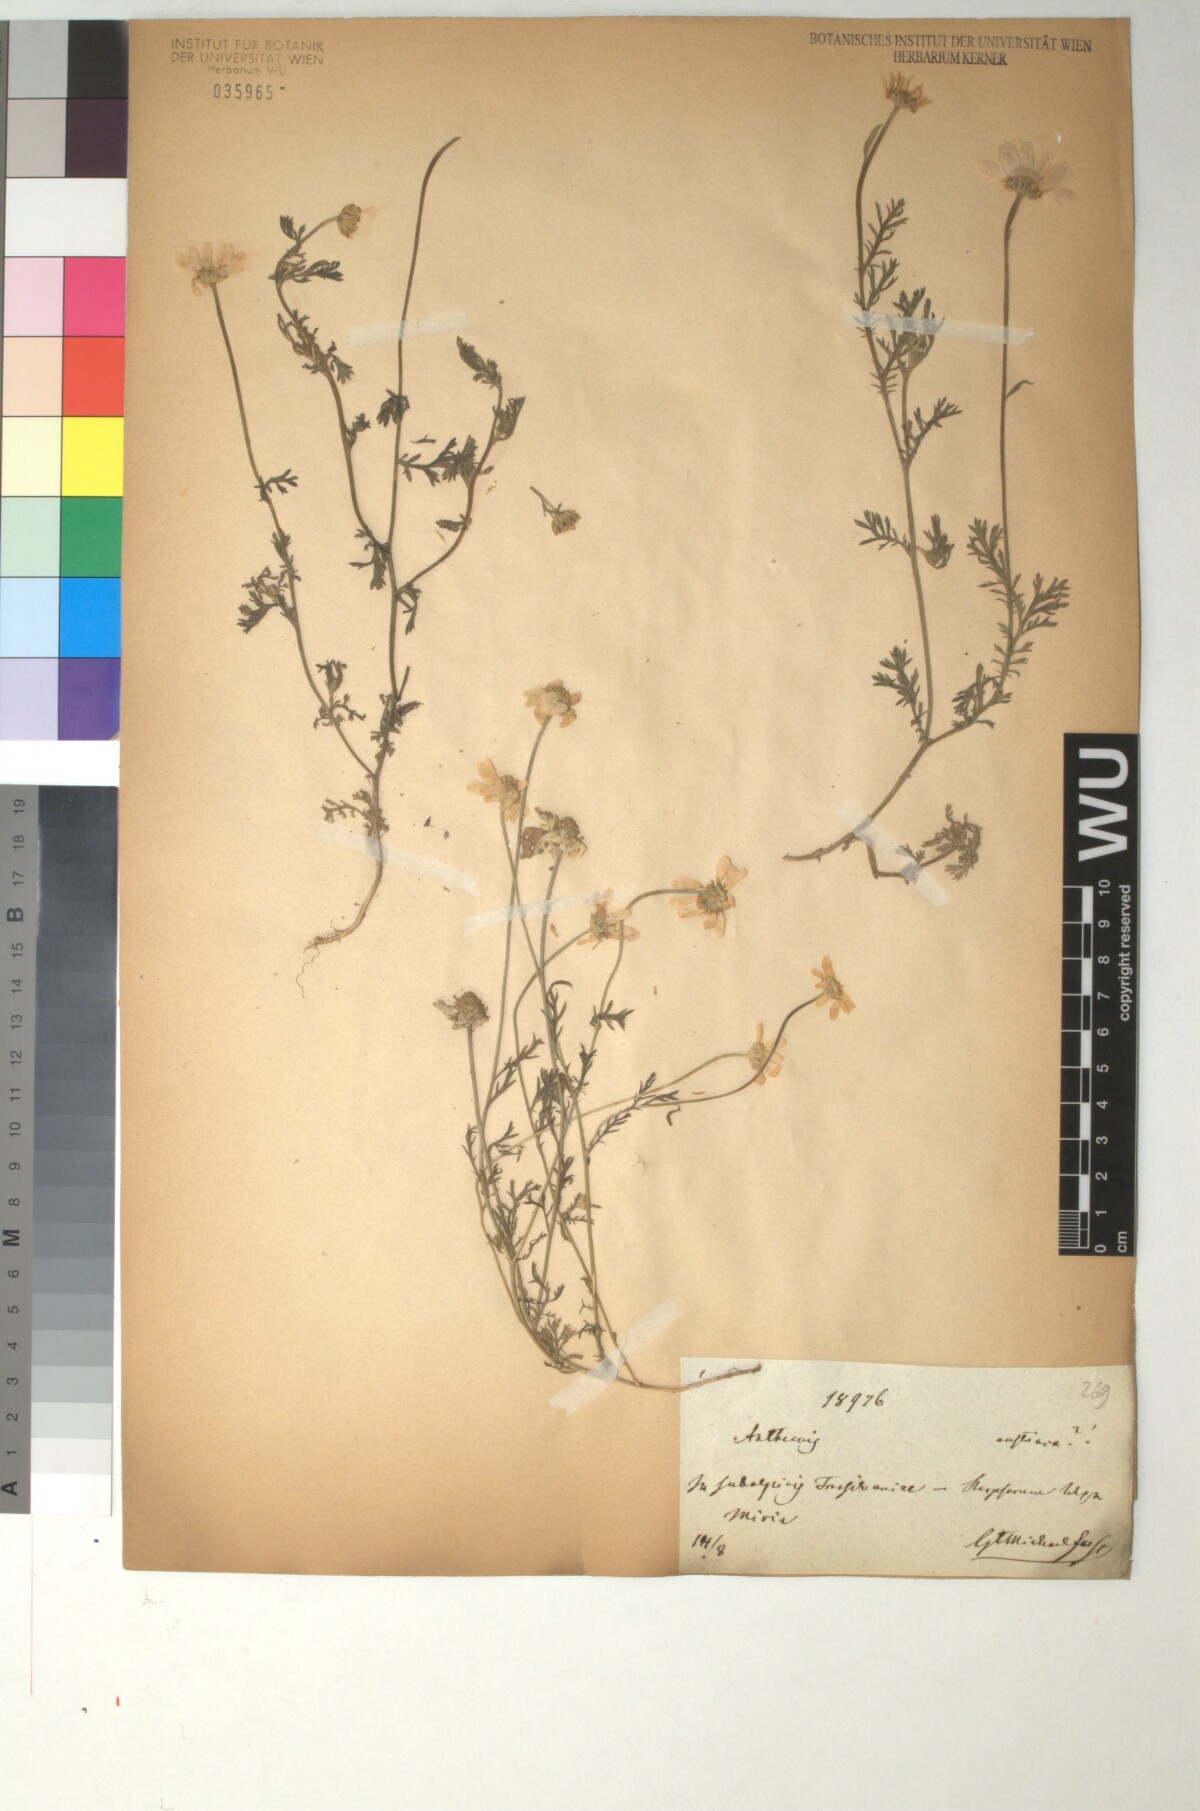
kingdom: Plantae
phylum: Tracheophyta
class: Magnoliopsida
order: Asterales
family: Asteraceae
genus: Cota
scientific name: Cota austriaca
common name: Austrian chamomile
